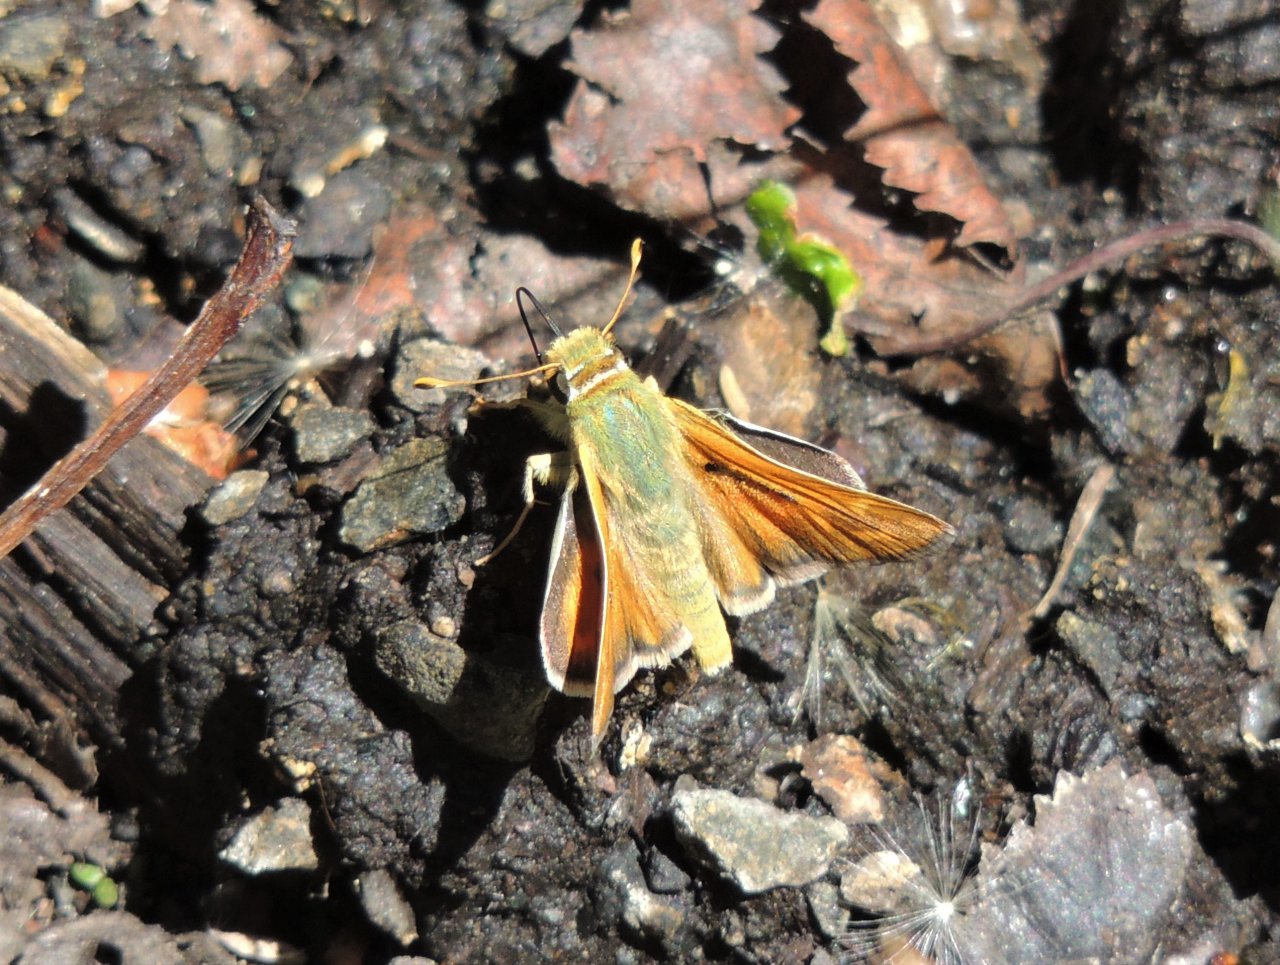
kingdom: Animalia
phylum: Arthropoda
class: Insecta
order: Lepidoptera
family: Hesperiidae
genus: Hesperia
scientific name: Hesperia juba
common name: Juba Skipper
